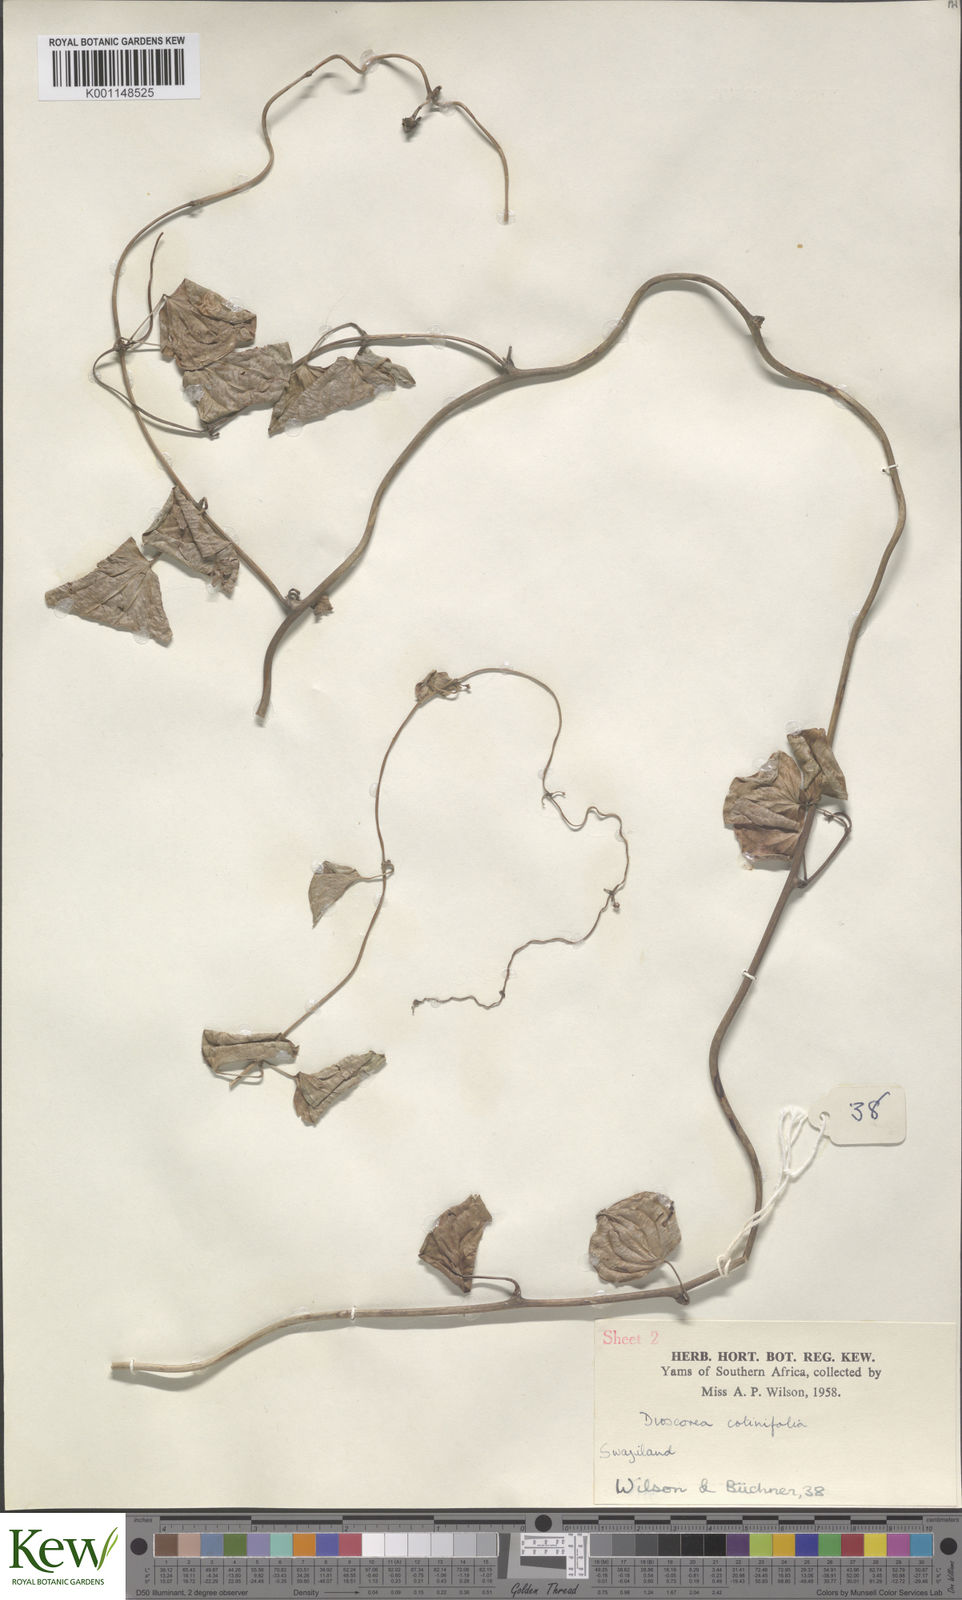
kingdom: Plantae
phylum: Tracheophyta
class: Liliopsida
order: Dioscoreales
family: Dioscoreaceae
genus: Dioscorea
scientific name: Dioscorea cotinifolia
